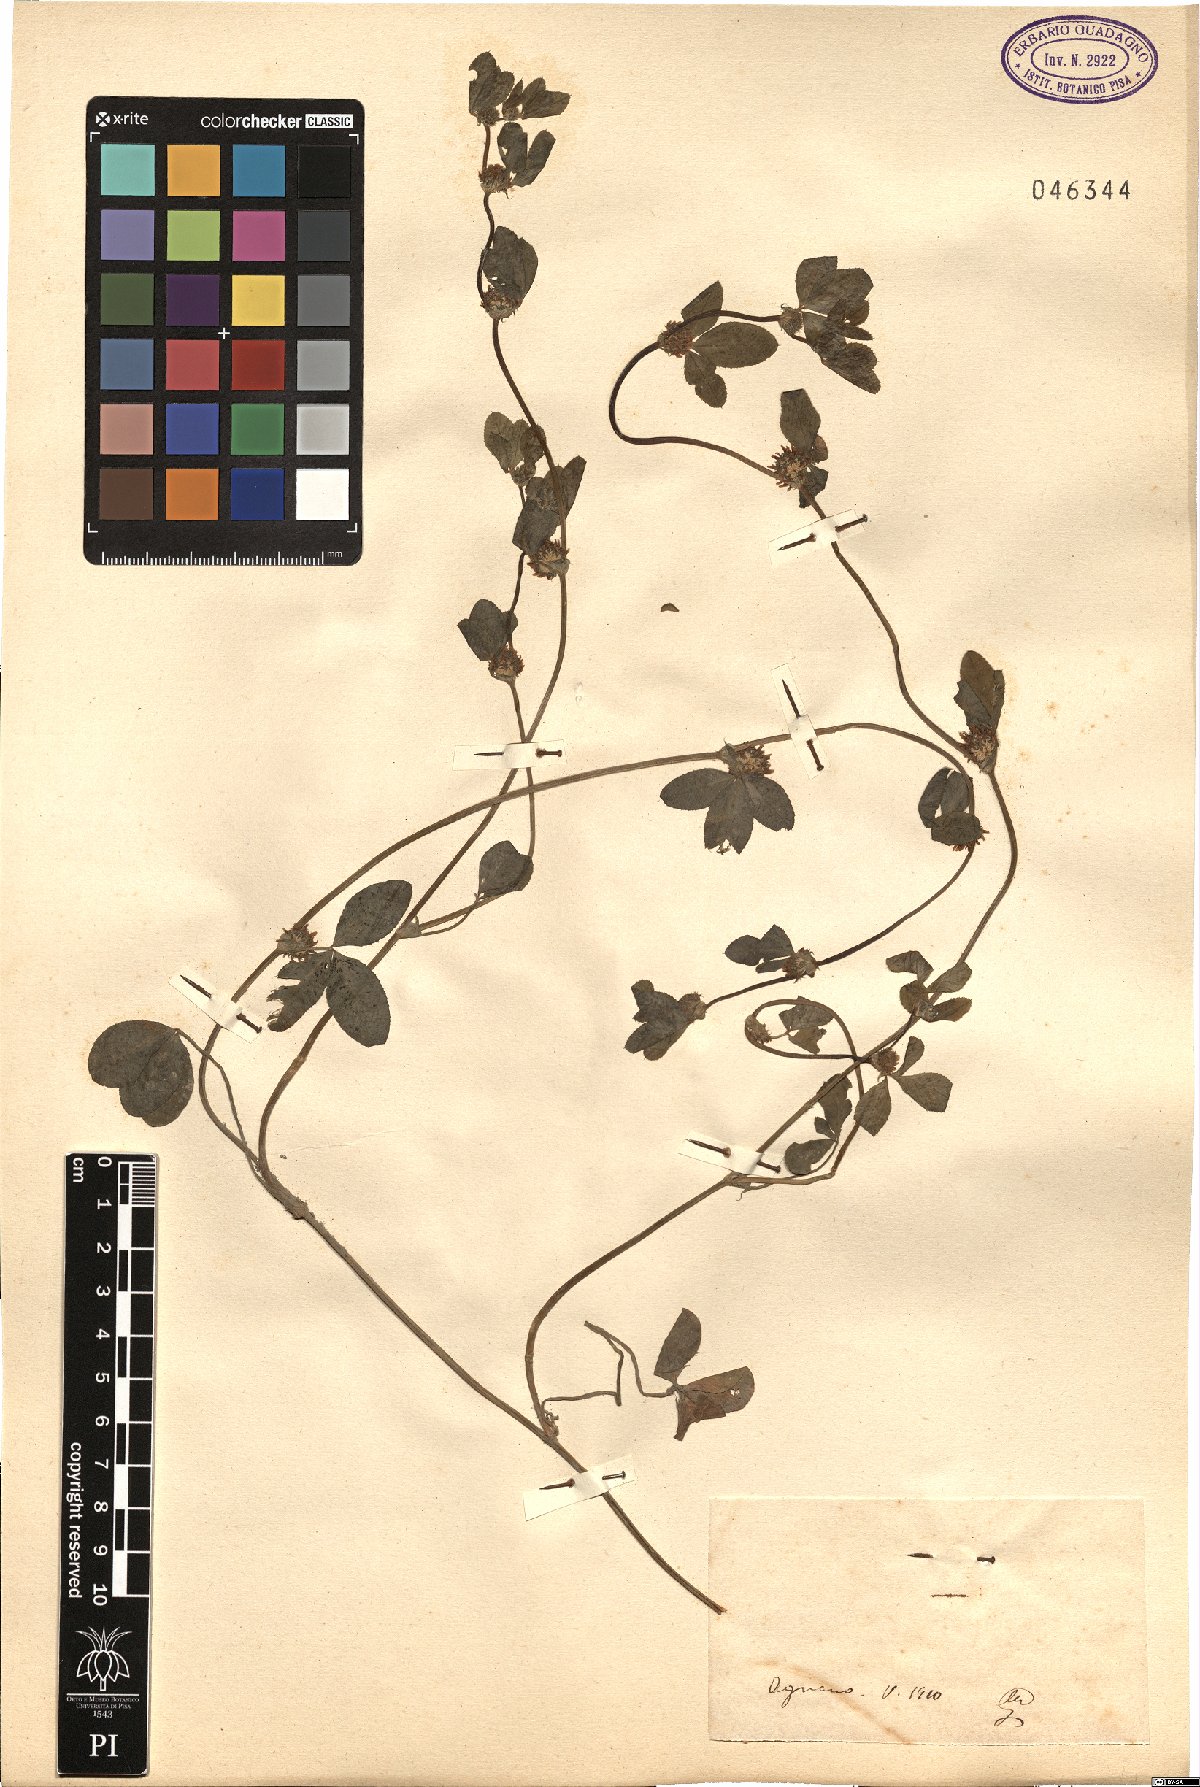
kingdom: Plantae
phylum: Tracheophyta
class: Magnoliopsida
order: Fabales
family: Fabaceae
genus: Trifolium
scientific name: Trifolium
